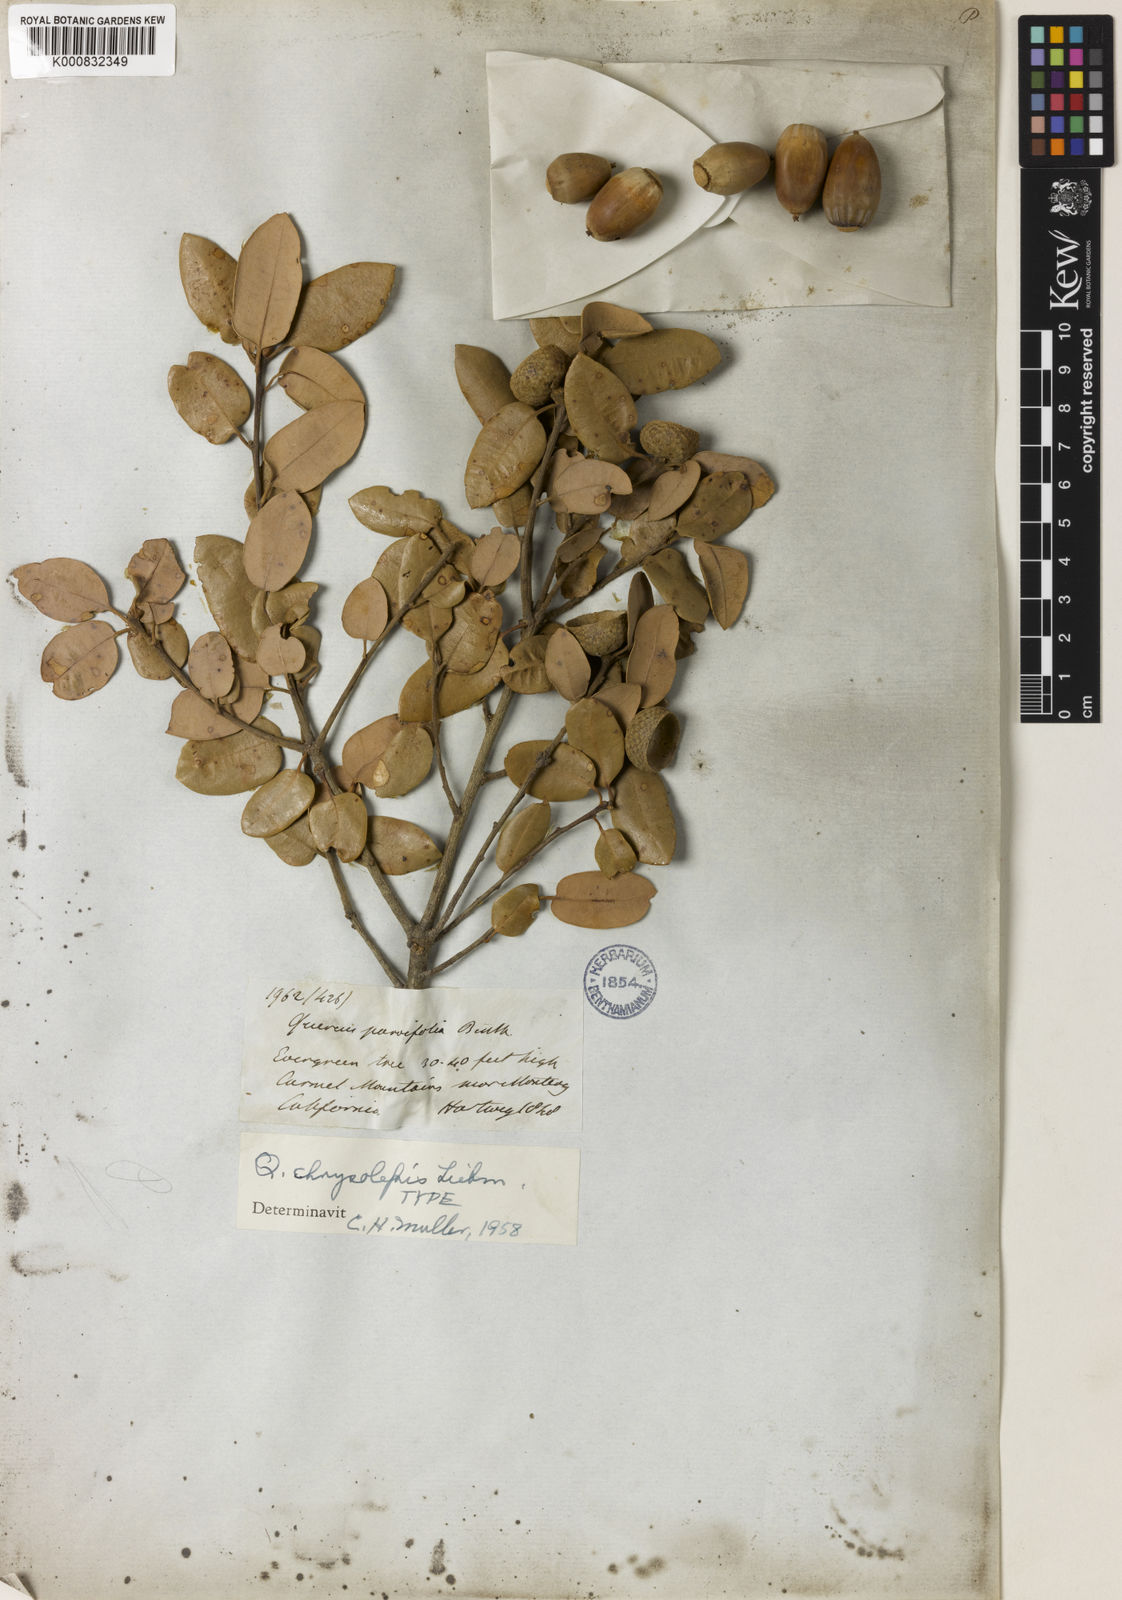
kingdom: Plantae
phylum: Tracheophyta
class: Magnoliopsida
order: Fagales
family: Fagaceae
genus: Quercus
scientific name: Quercus chrysolepis
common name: Canyon live oak
